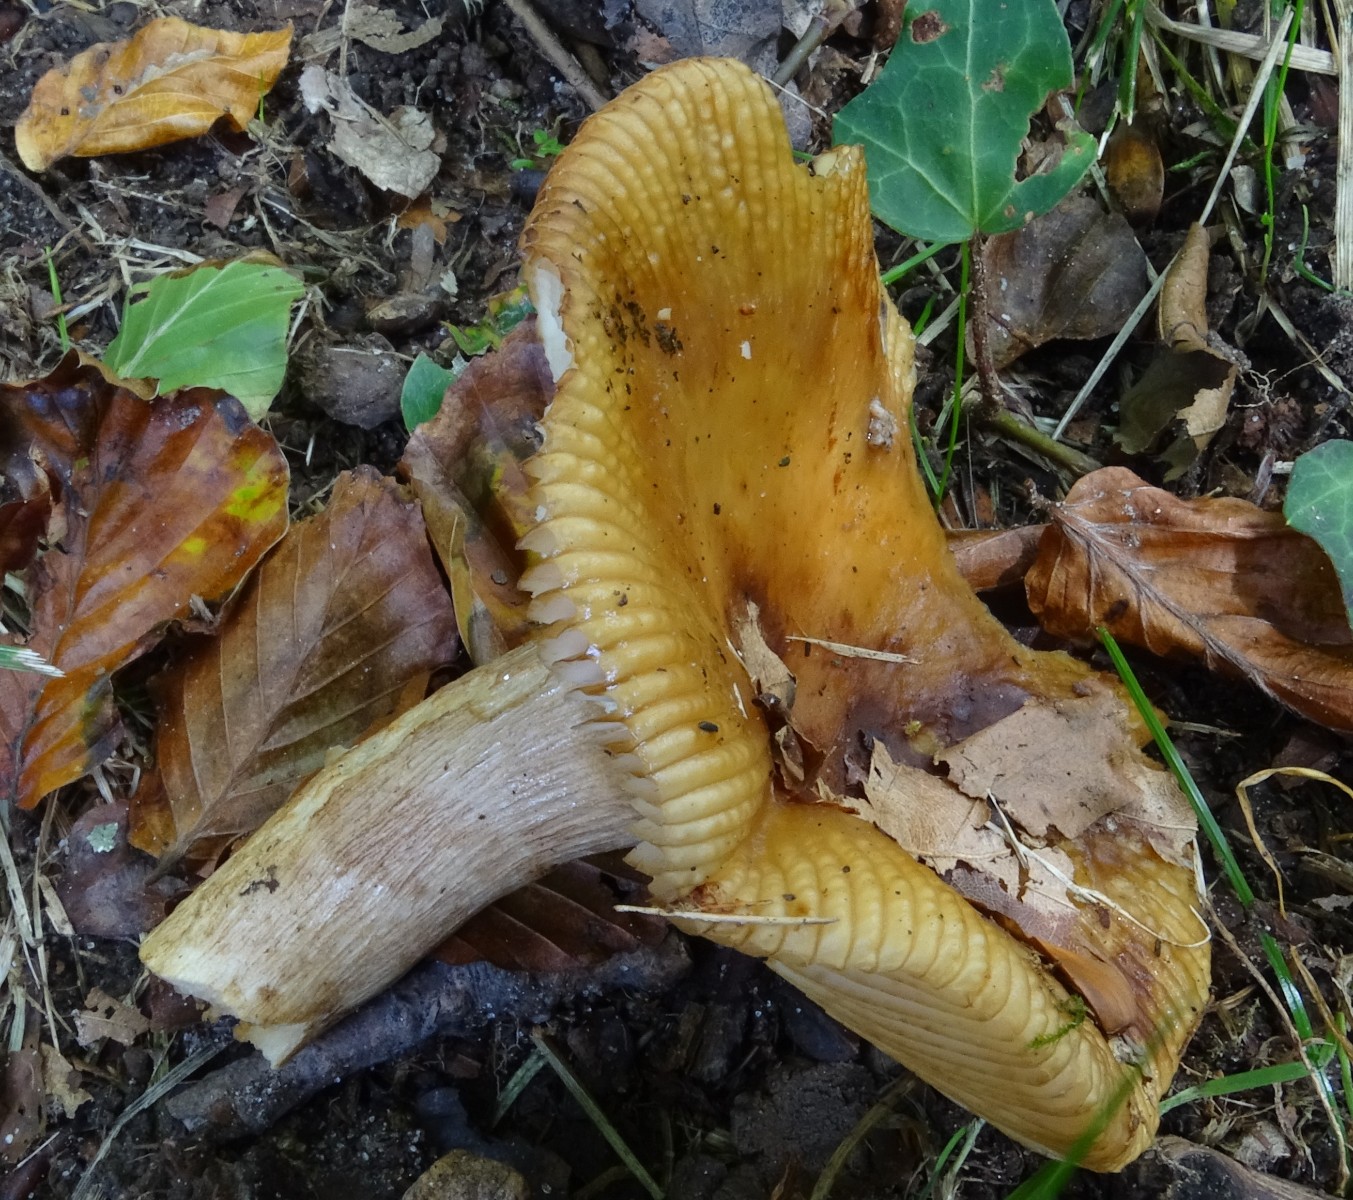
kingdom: Fungi
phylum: Basidiomycota
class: Agaricomycetes
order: Russulales
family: Russulaceae
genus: Russula
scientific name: Russula grata
